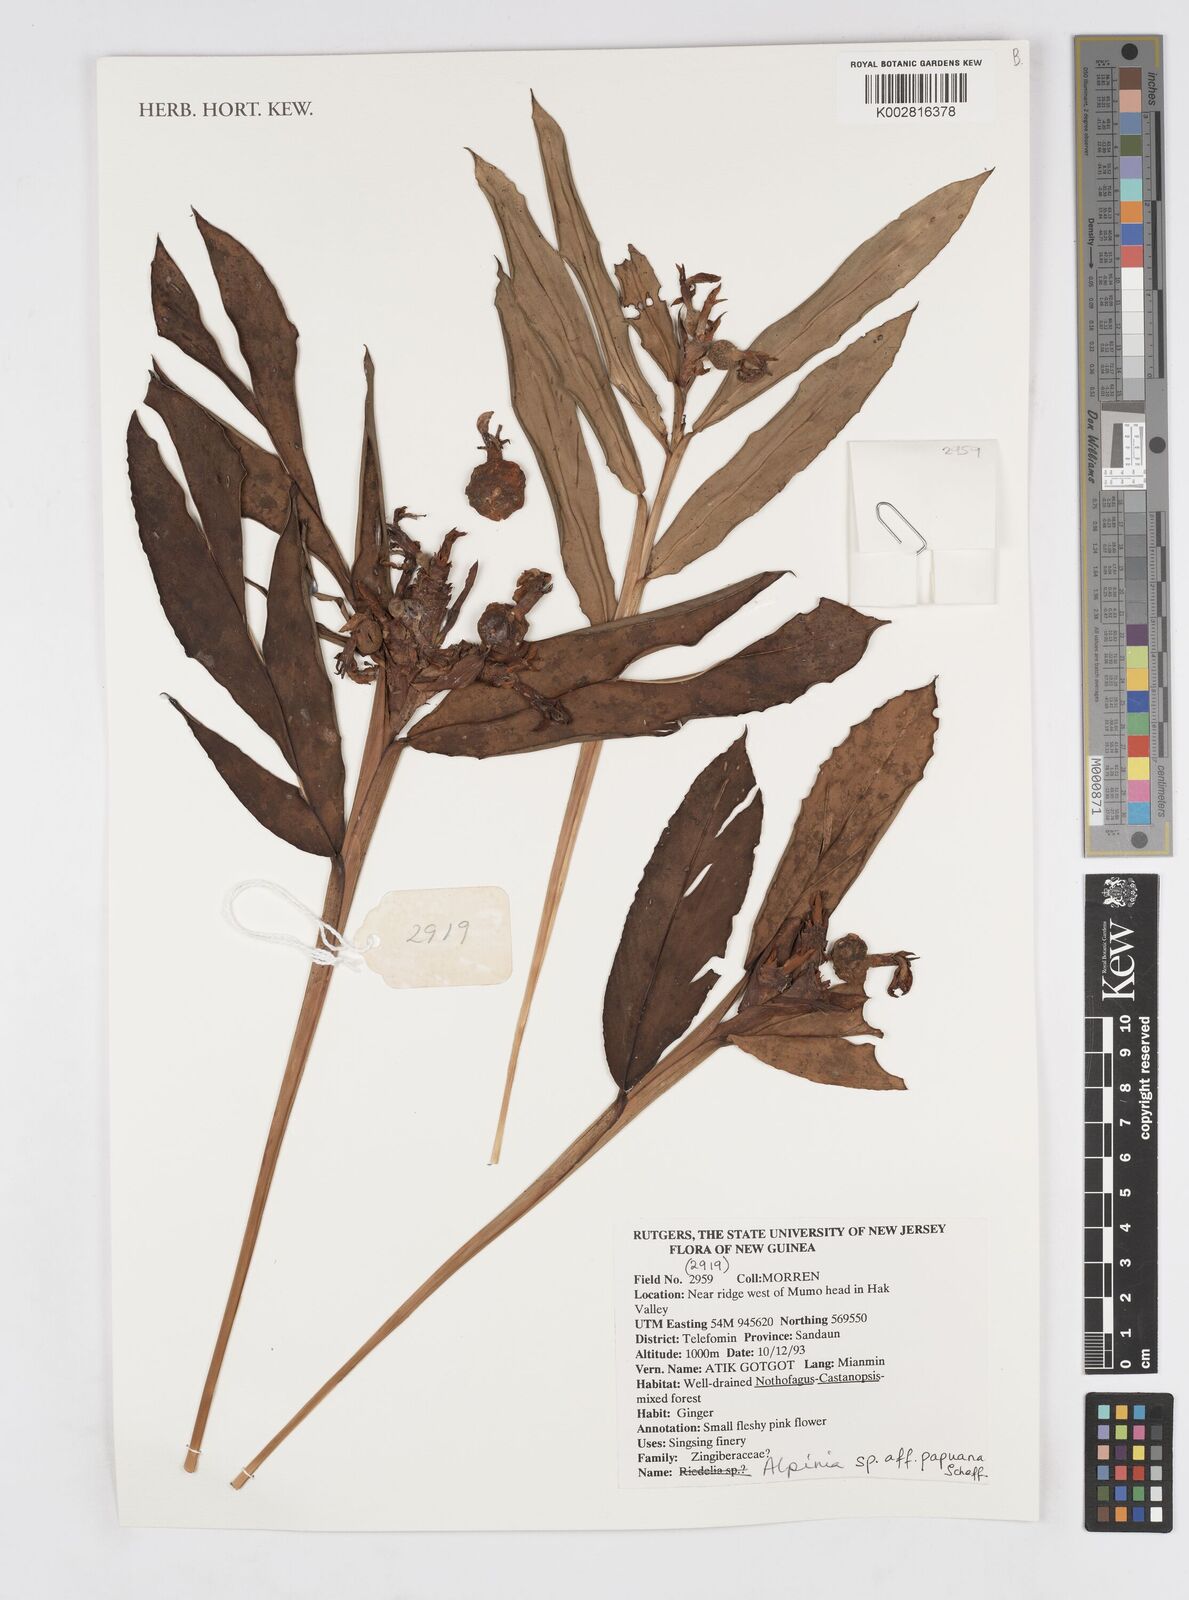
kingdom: Plantae
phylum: Tracheophyta
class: Liliopsida
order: Zingiberales
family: Zingiberaceae
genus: Alpinia
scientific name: Alpinia papuana
